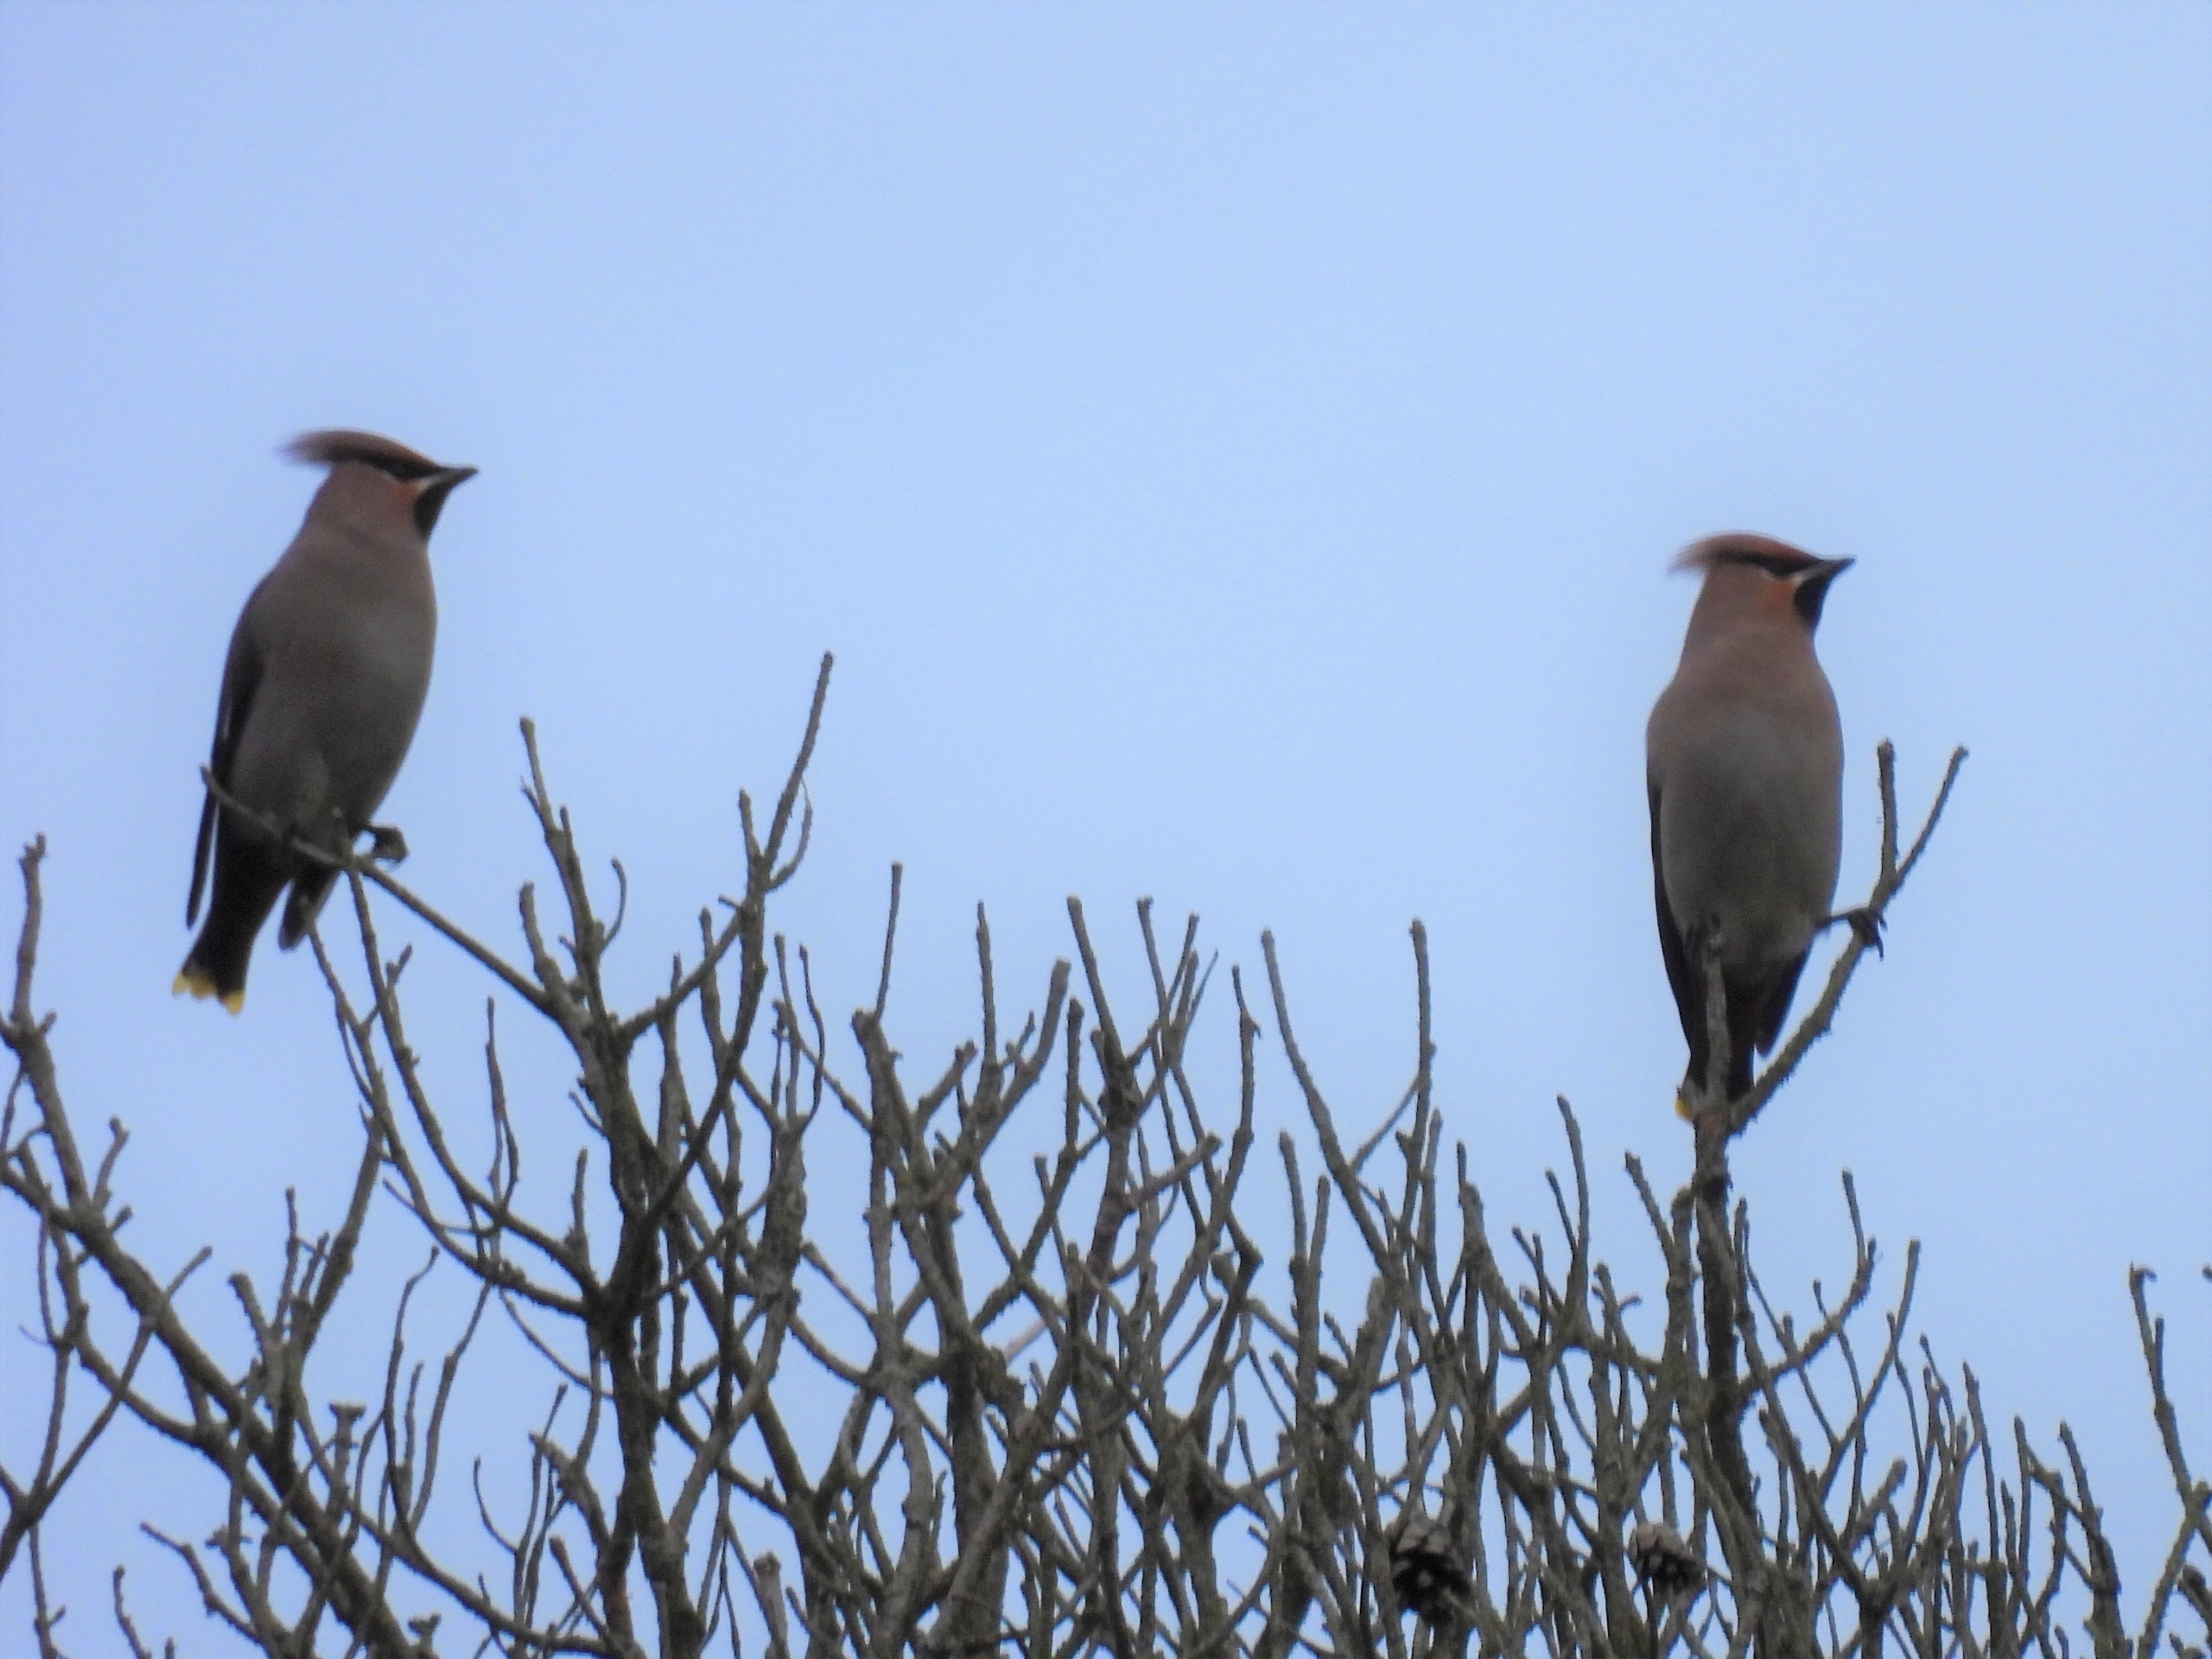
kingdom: Animalia
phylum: Chordata
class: Aves
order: Passeriformes
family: Bombycillidae
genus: Bombycilla
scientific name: Bombycilla garrulus
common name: Silkehale
